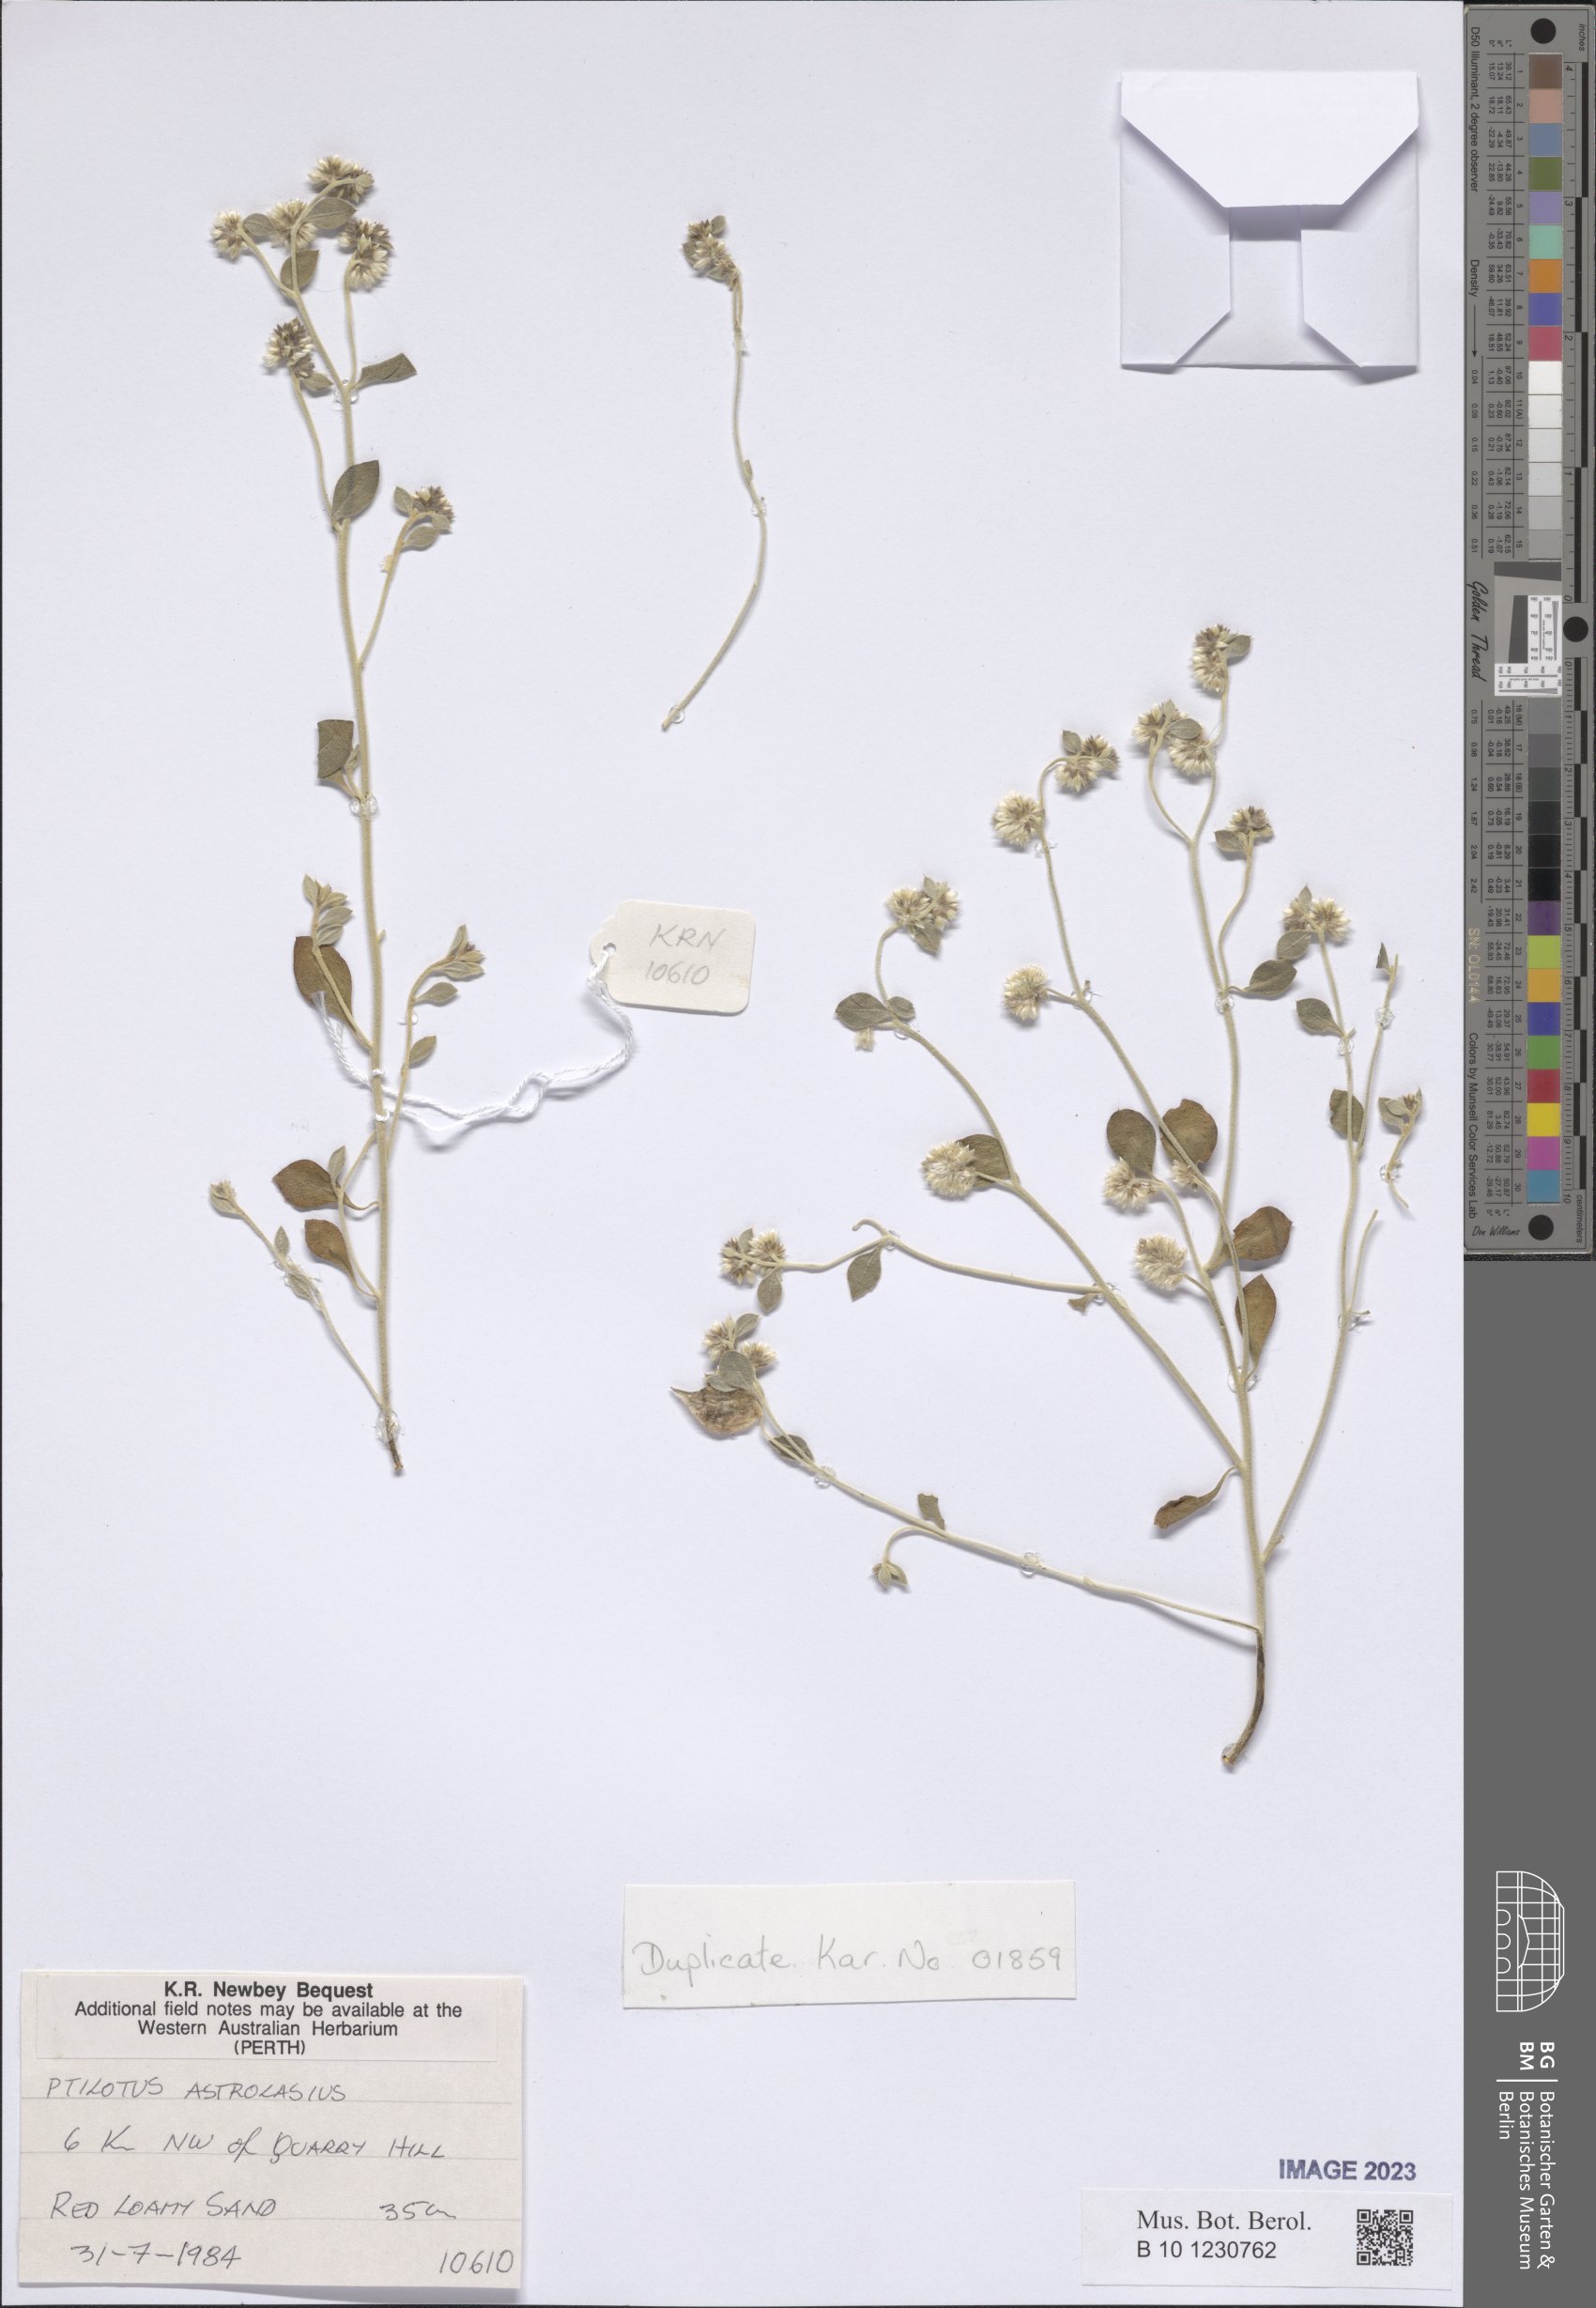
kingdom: Plantae
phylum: Tracheophyta
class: Magnoliopsida
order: Caryophyllales
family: Amaranthaceae
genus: Ptilotus
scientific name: Ptilotus astrolasius
